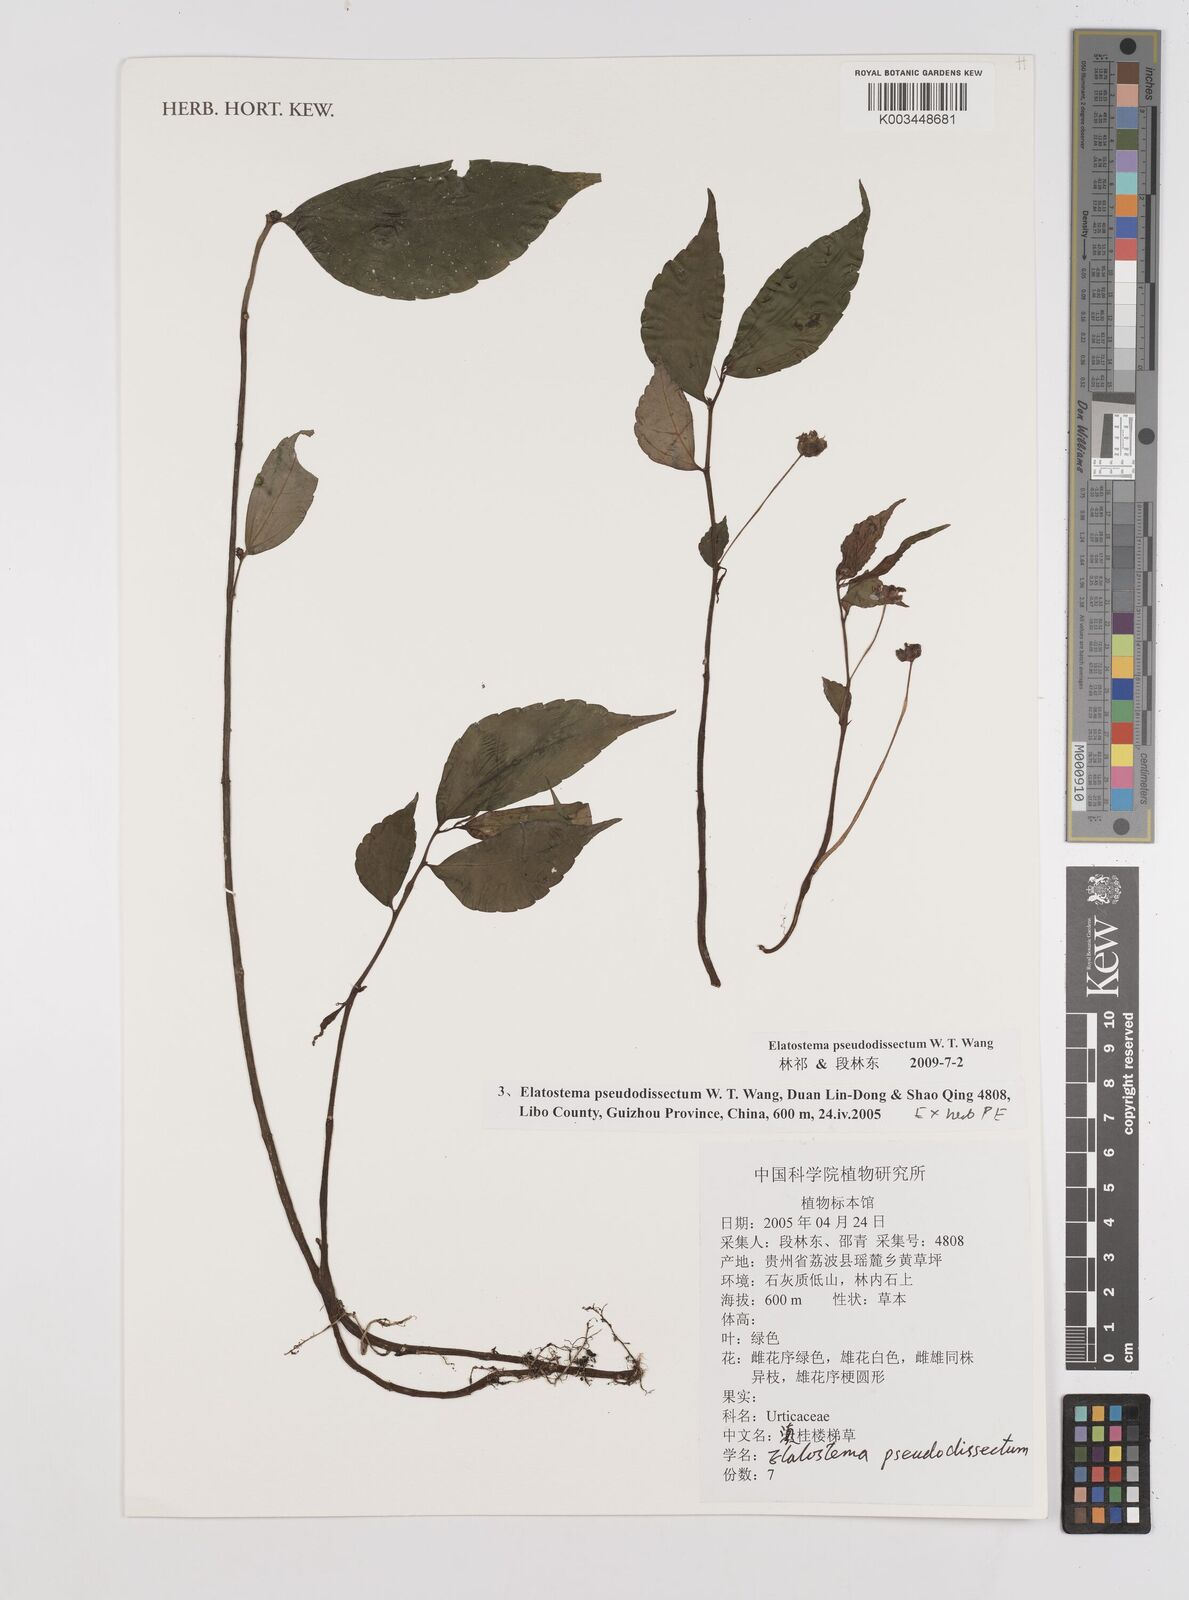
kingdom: Plantae
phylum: Tracheophyta
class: Magnoliopsida
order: Rosales
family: Urticaceae
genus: Elatostema
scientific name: Elatostema pseudodissectum
